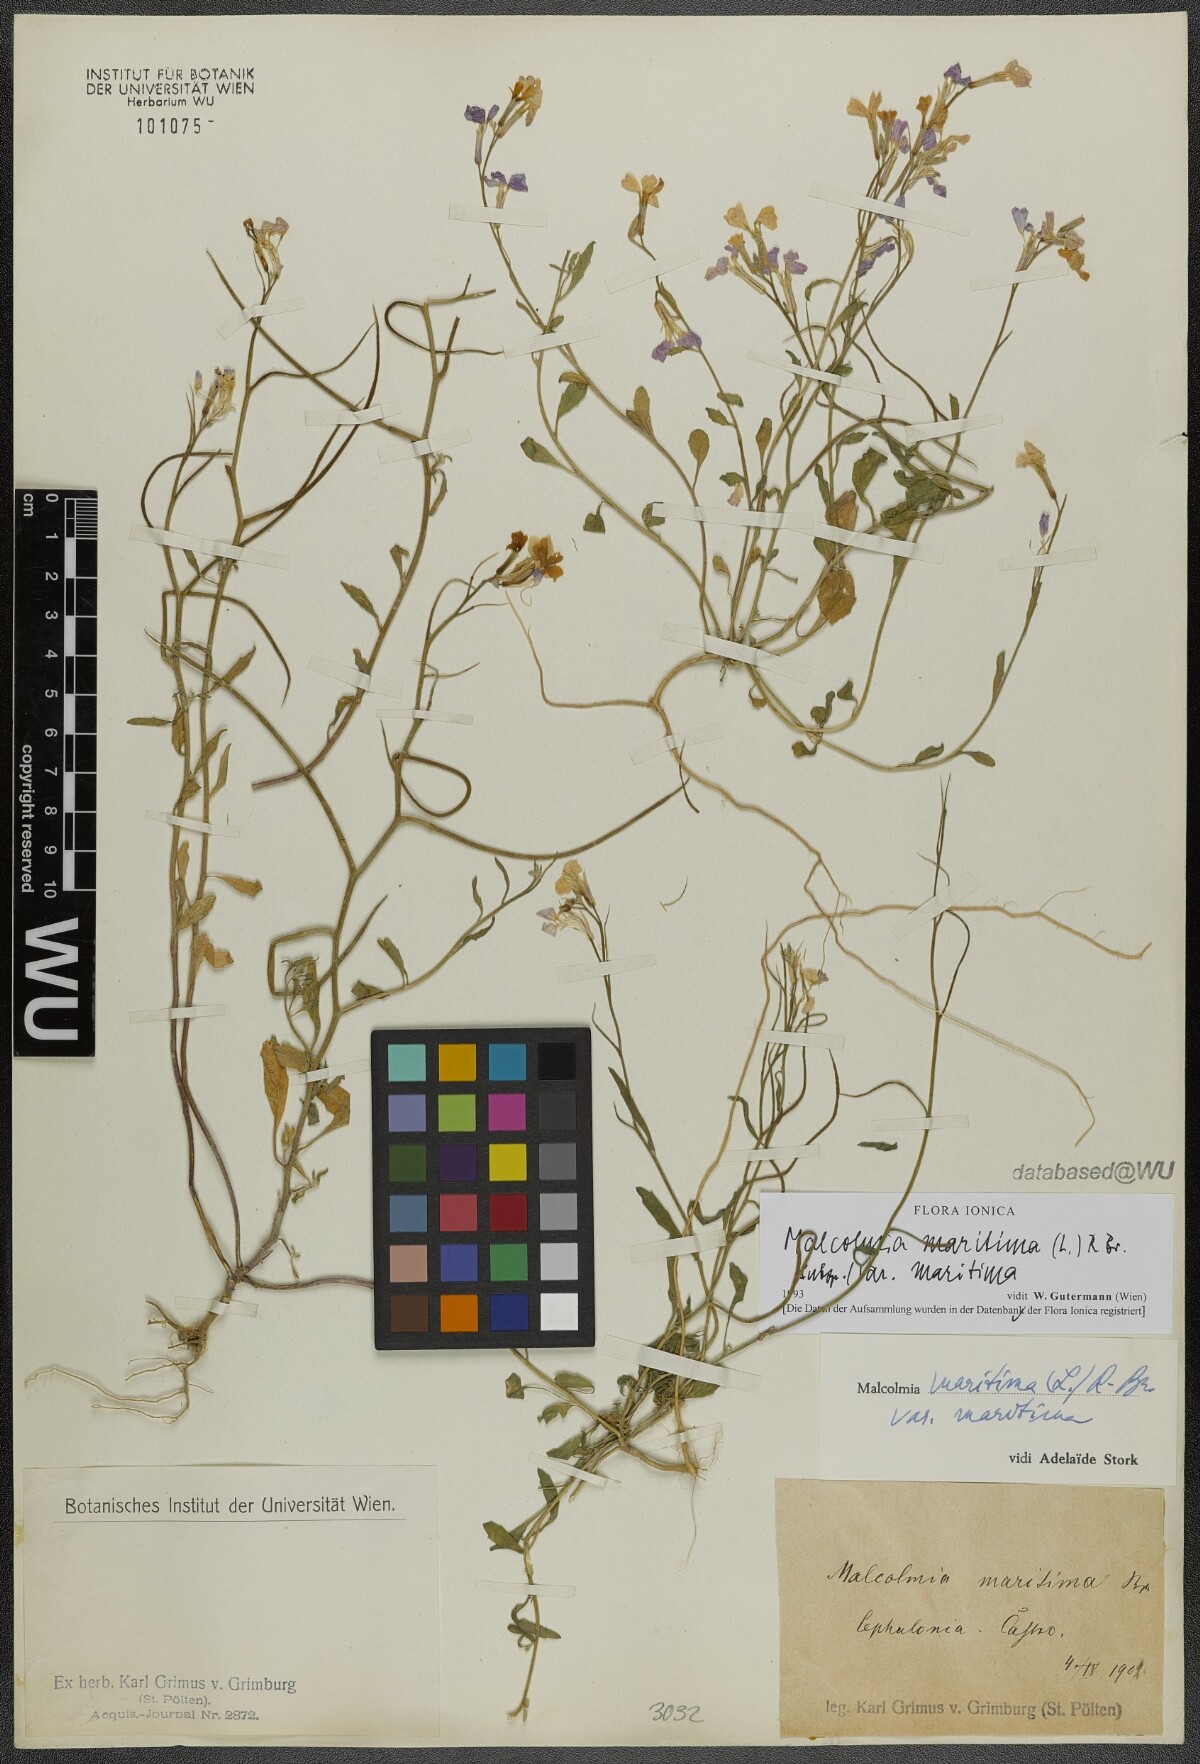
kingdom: Plantae
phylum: Tracheophyta
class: Magnoliopsida
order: Brassicales
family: Brassicaceae
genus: Malcolmia
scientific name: Malcolmia maritima
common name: Virginia stock
